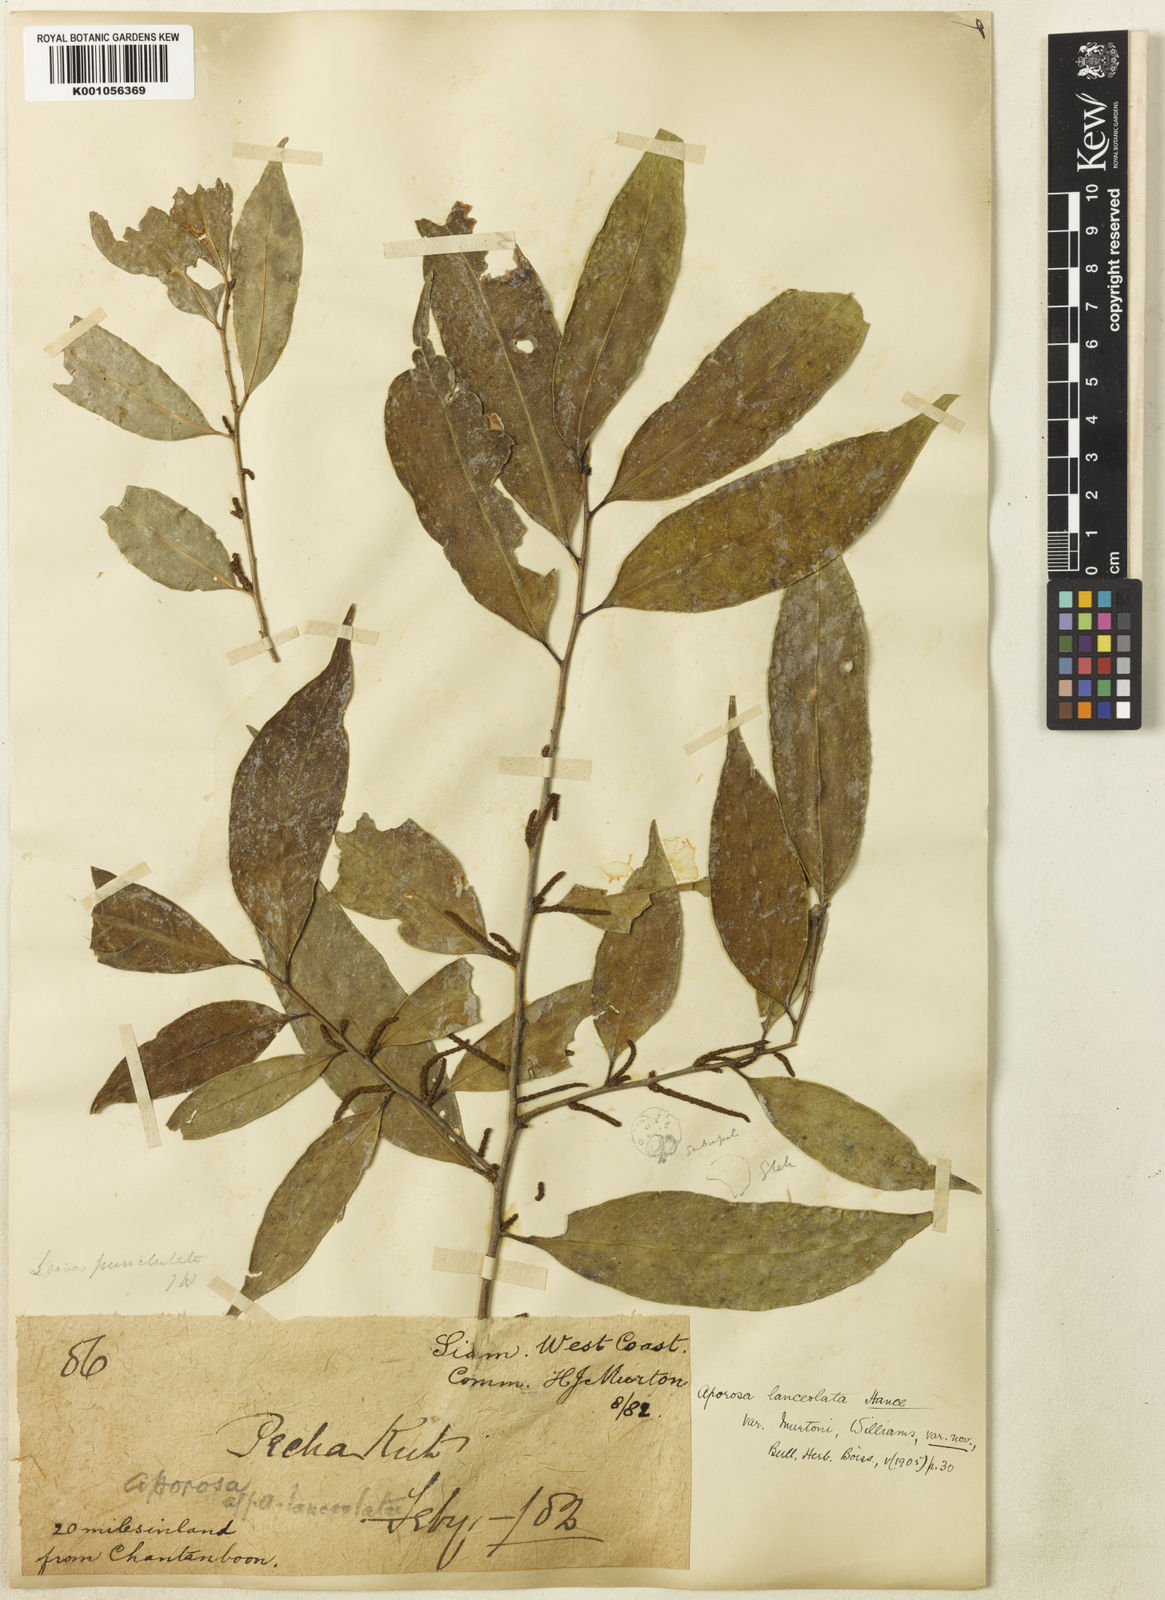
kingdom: Plantae
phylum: Tracheophyta
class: Magnoliopsida
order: Malpighiales
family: Phyllanthaceae
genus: Aporosa
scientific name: Aporosa
